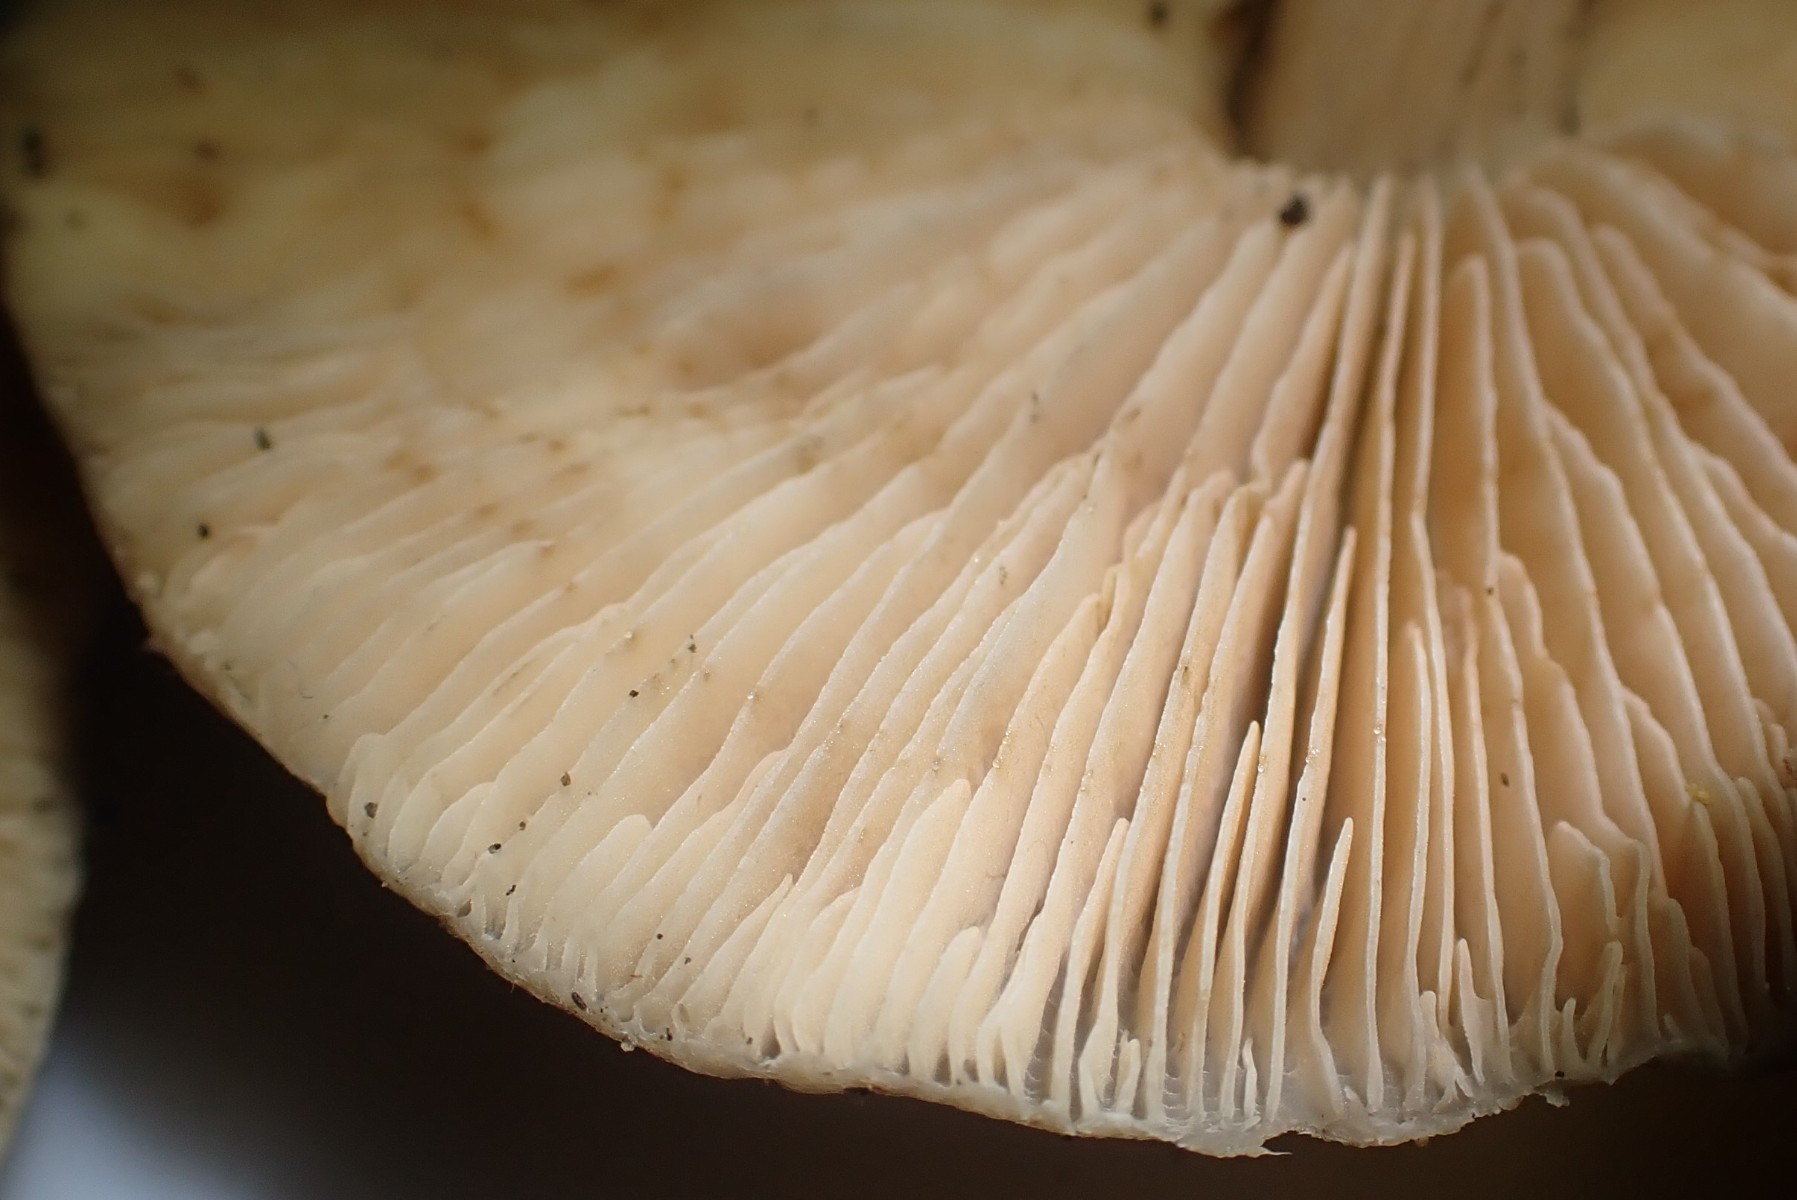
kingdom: Fungi
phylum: Basidiomycota
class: Agaricomycetes
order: Agaricales
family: Pluteaceae
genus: Pluteus
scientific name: Pluteus phlebophorus
